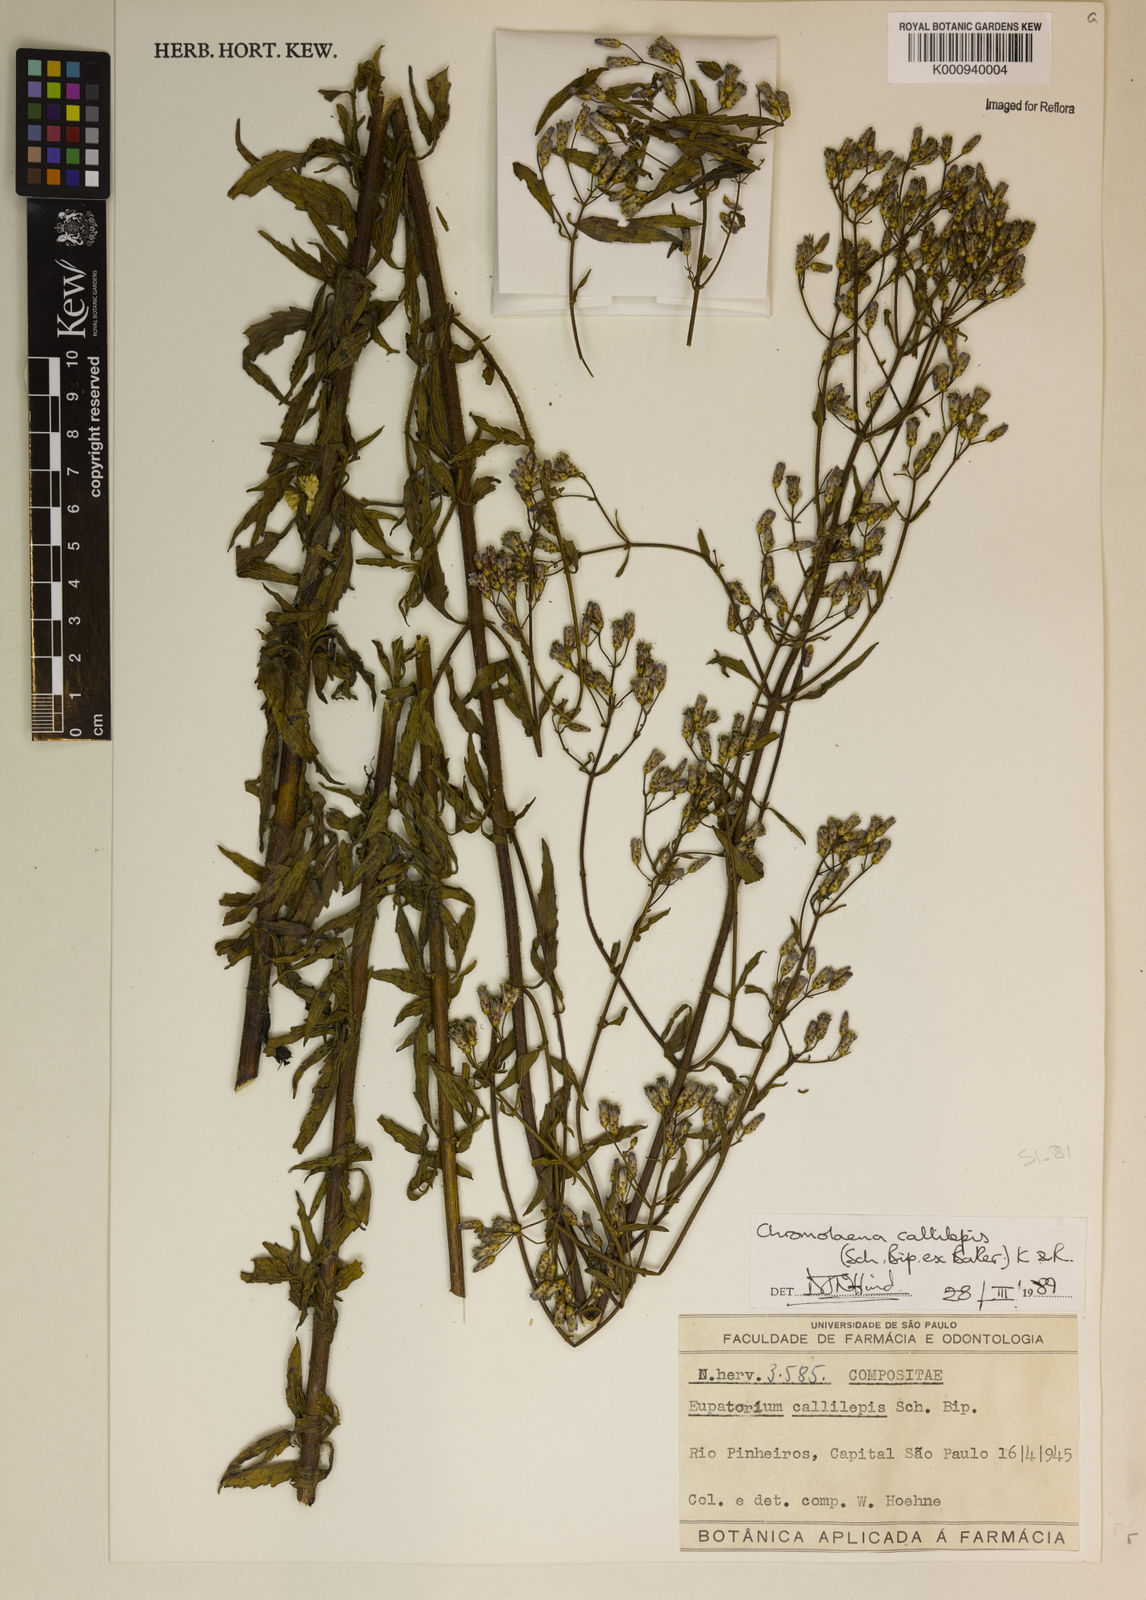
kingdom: Plantae
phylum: Tracheophyta
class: Magnoliopsida
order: Asterales
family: Asteraceae
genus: Chromolaena
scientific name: Chromolaena callilepis
